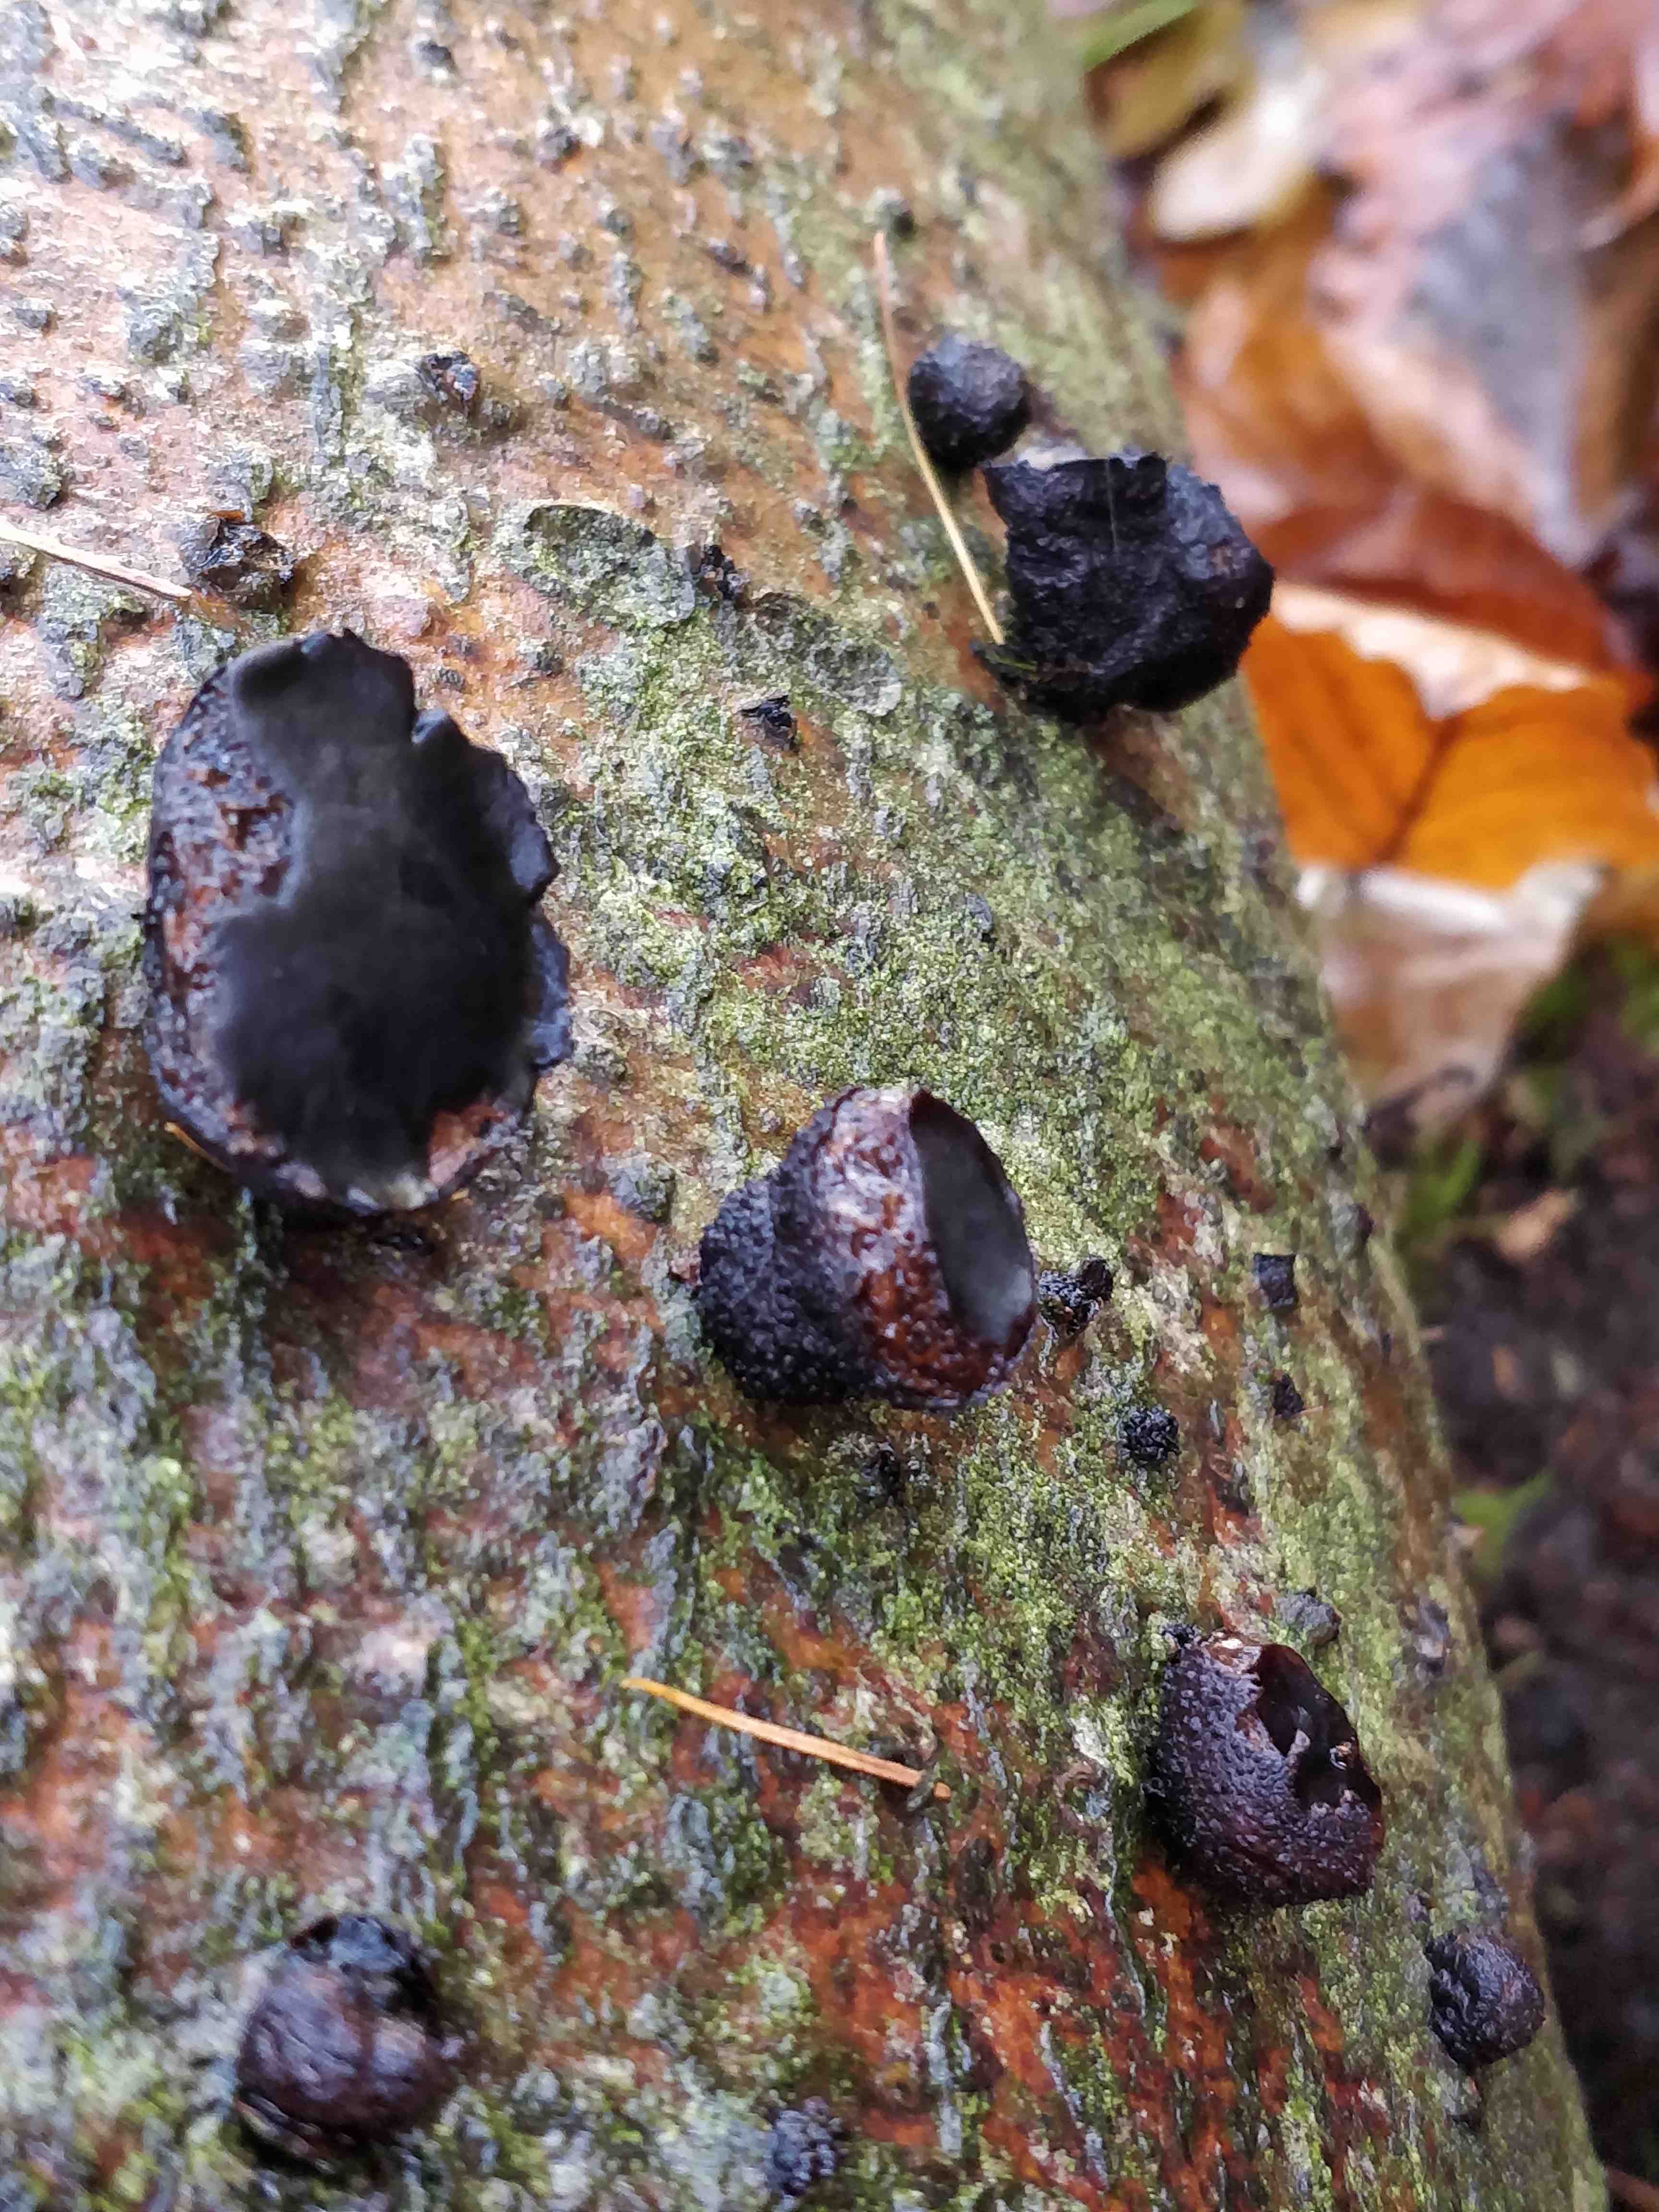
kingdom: Fungi
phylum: Ascomycota
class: Leotiomycetes
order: Phacidiales
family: Phacidiaceae
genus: Bulgaria
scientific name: Bulgaria inquinans
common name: afsmittende topsvamp
